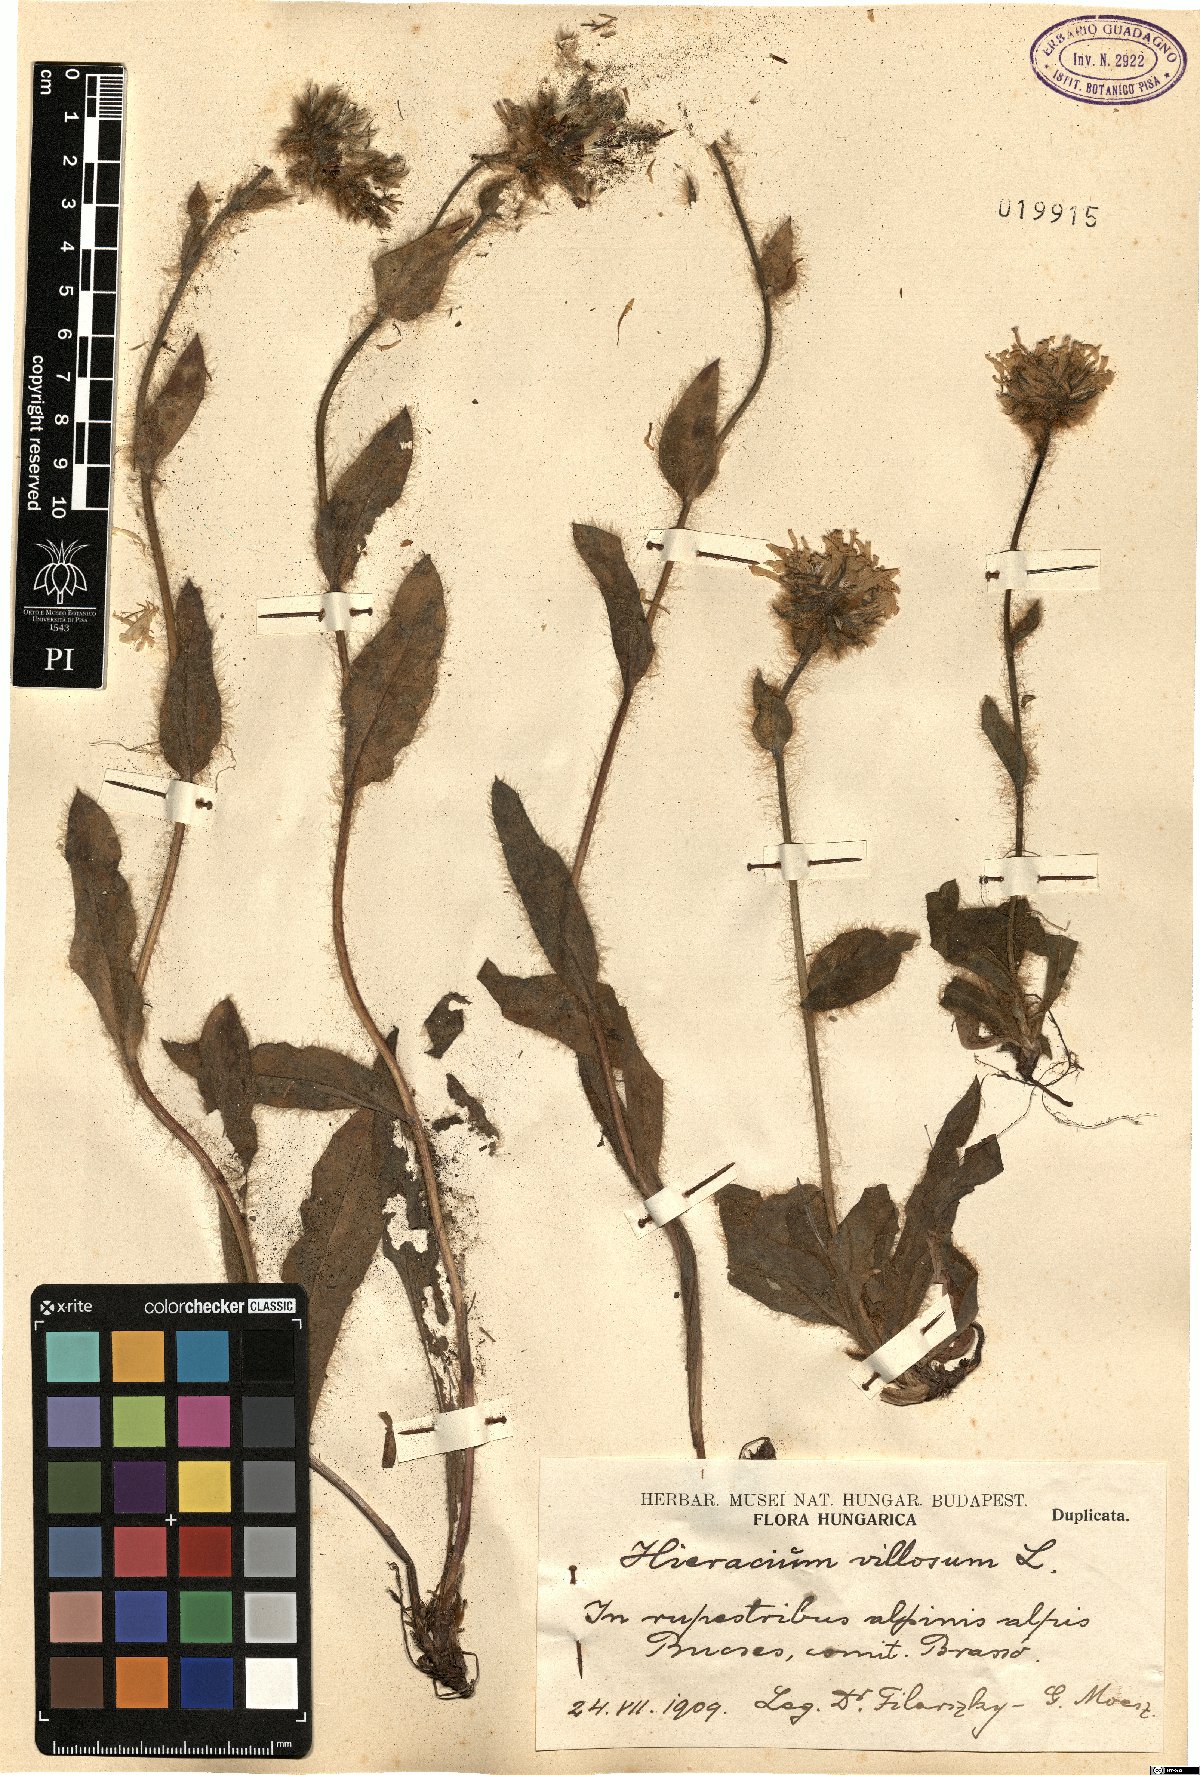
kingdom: Plantae
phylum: Tracheophyta
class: Magnoliopsida
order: Asterales
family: Asteraceae
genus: Hieracium
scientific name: Hieracium villosum
